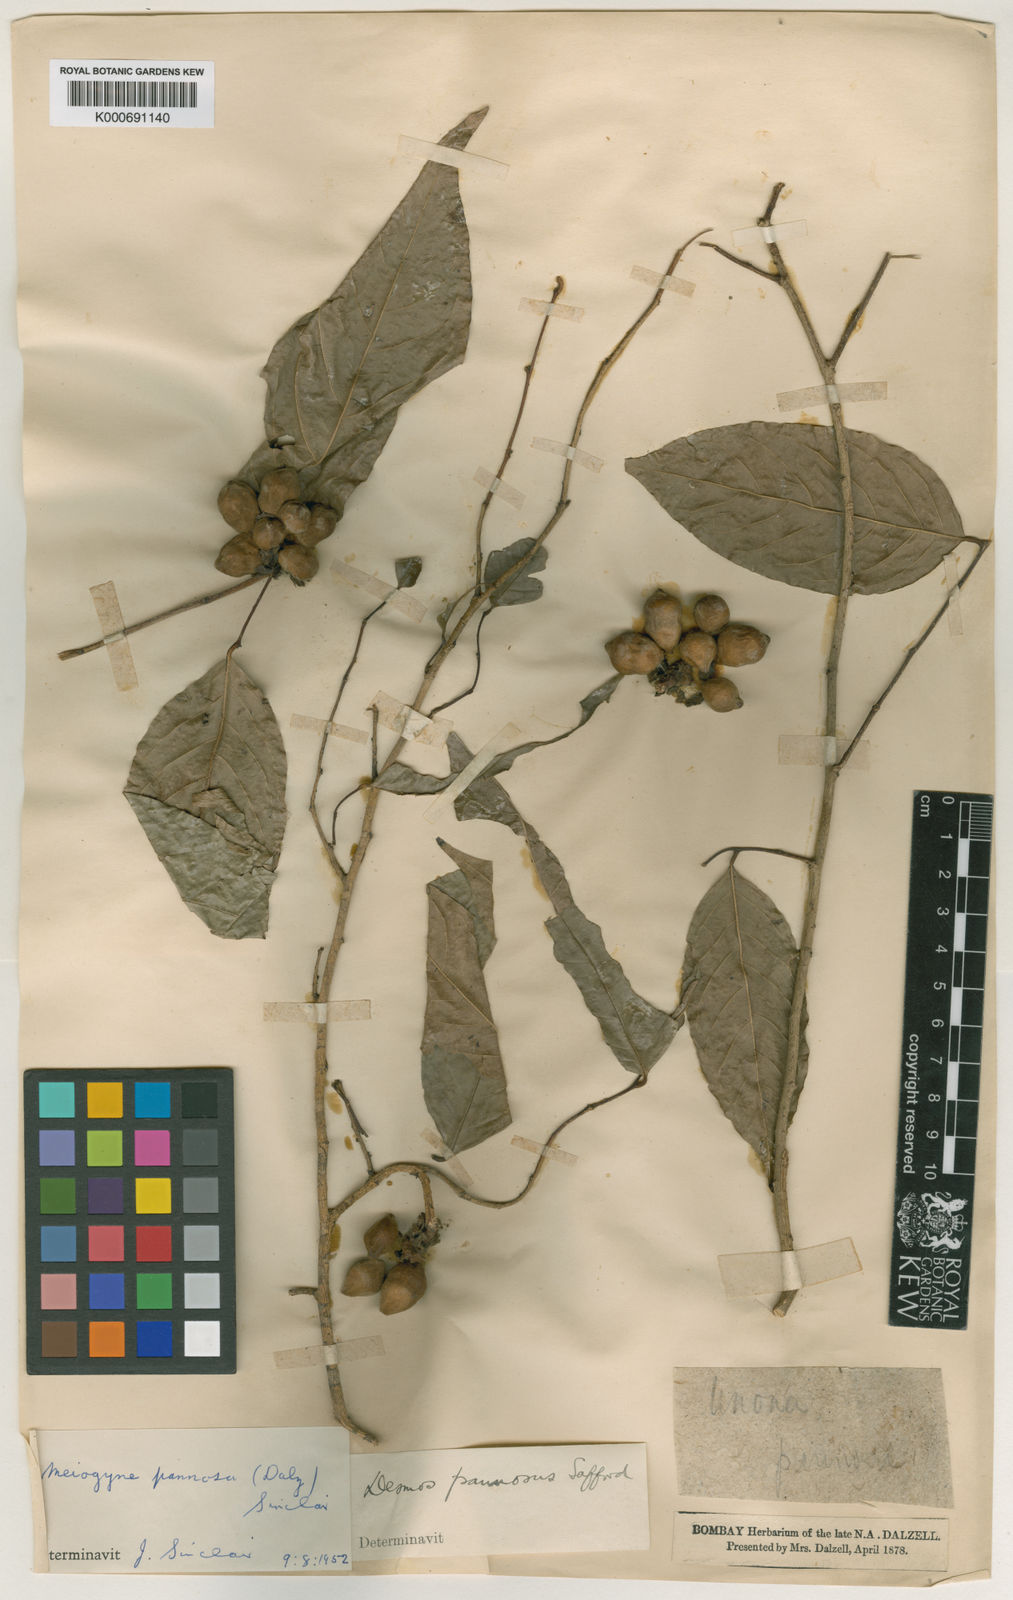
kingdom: Plantae
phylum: Tracheophyta
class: Magnoliopsida
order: Magnoliales
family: Annonaceae
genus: Meiogyne
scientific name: Meiogyne pannosa
